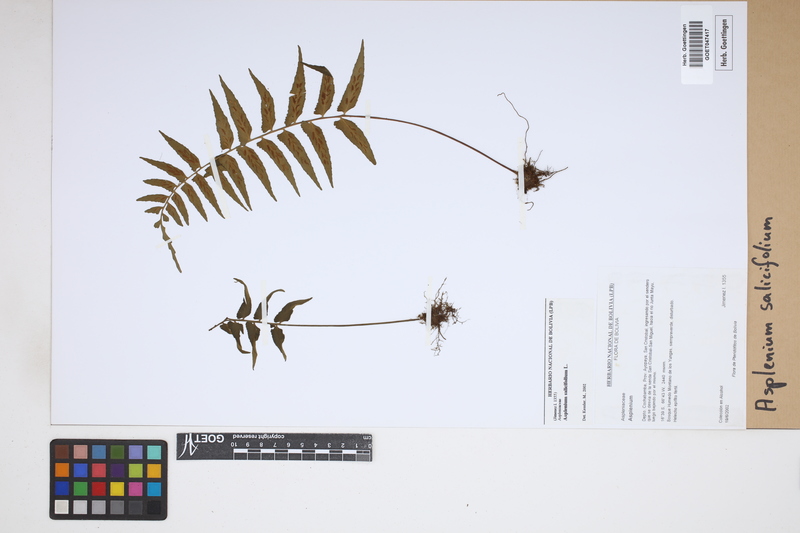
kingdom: Plantae
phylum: Tracheophyta
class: Polypodiopsida
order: Polypodiales
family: Aspleniaceae
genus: Asplenium
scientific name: Asplenium salicifolium
